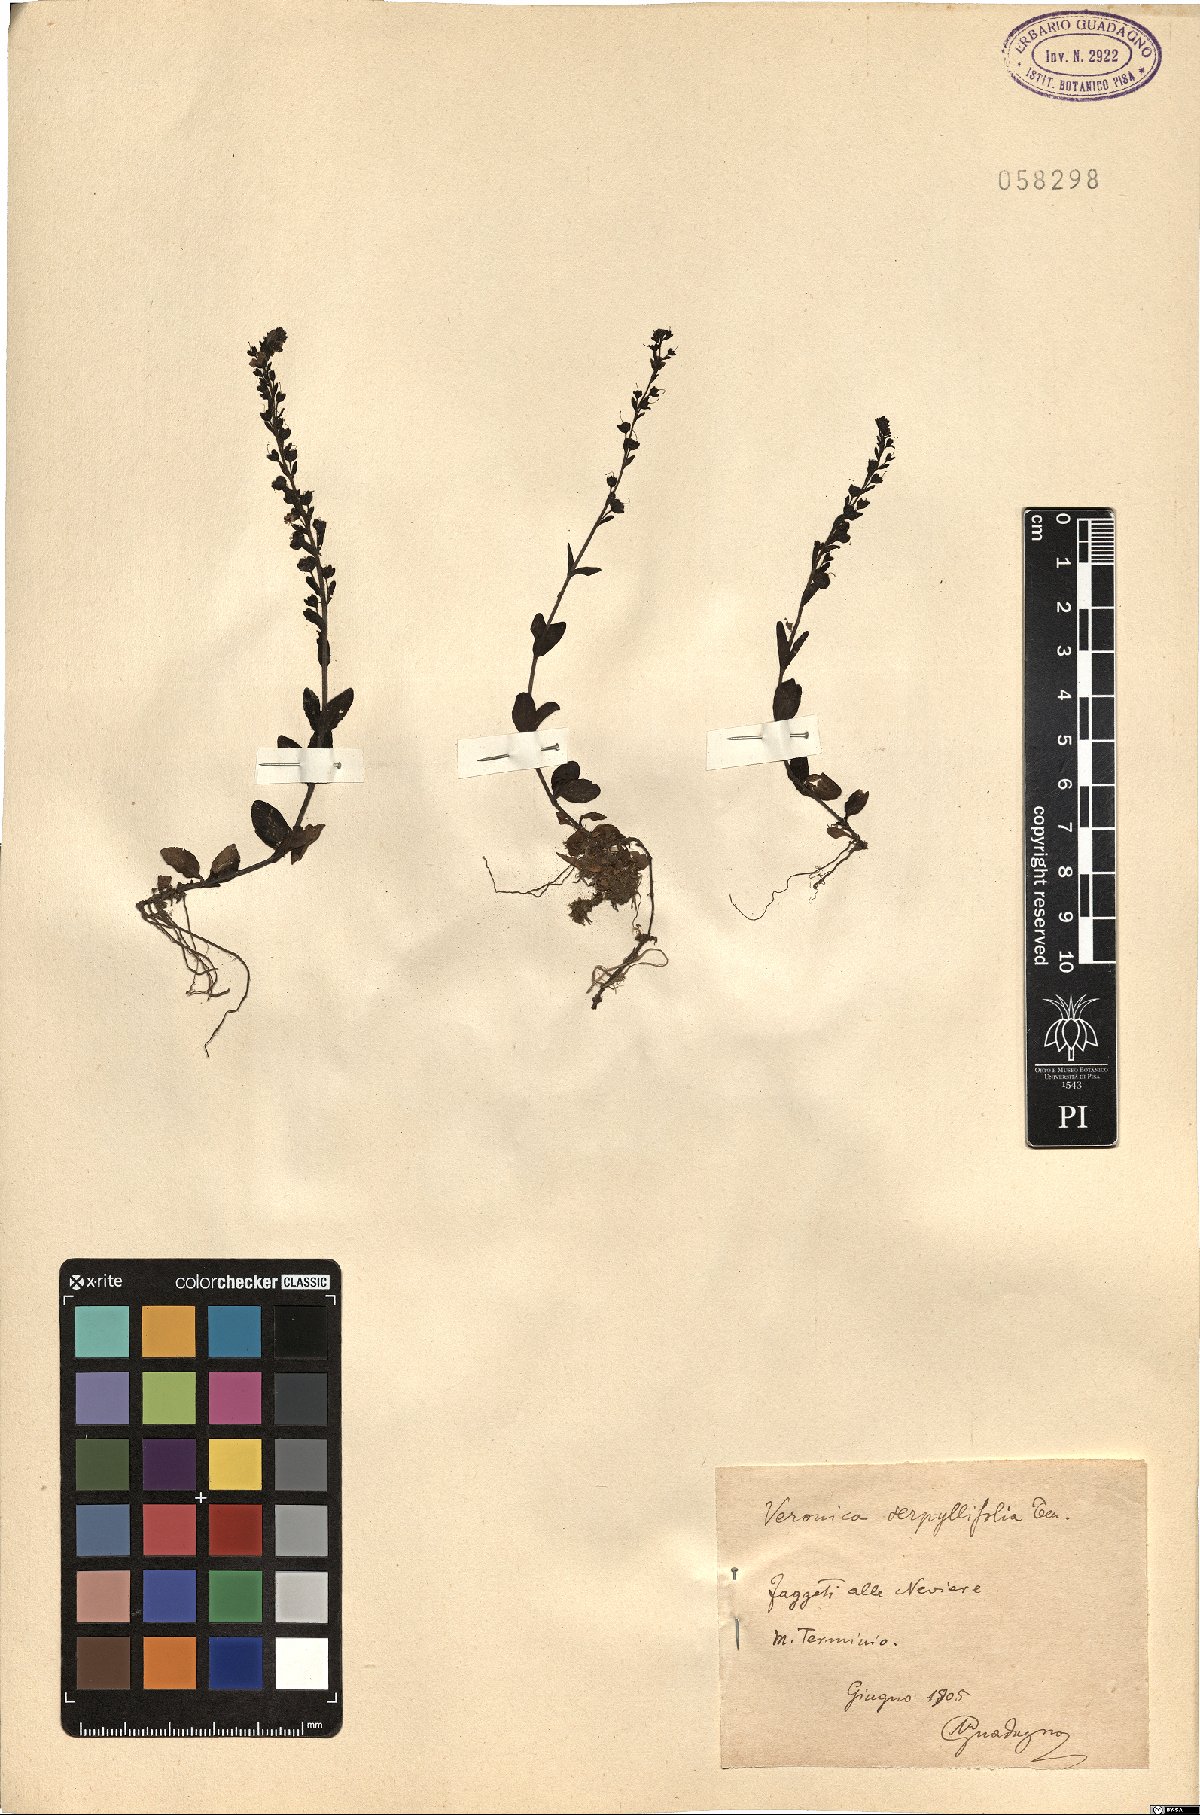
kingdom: Plantae
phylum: Tracheophyta
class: Magnoliopsida
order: Lamiales
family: Plantaginaceae
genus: Veronica
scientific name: Veronica serpyllifolia
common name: Thyme-leaved speedwell
